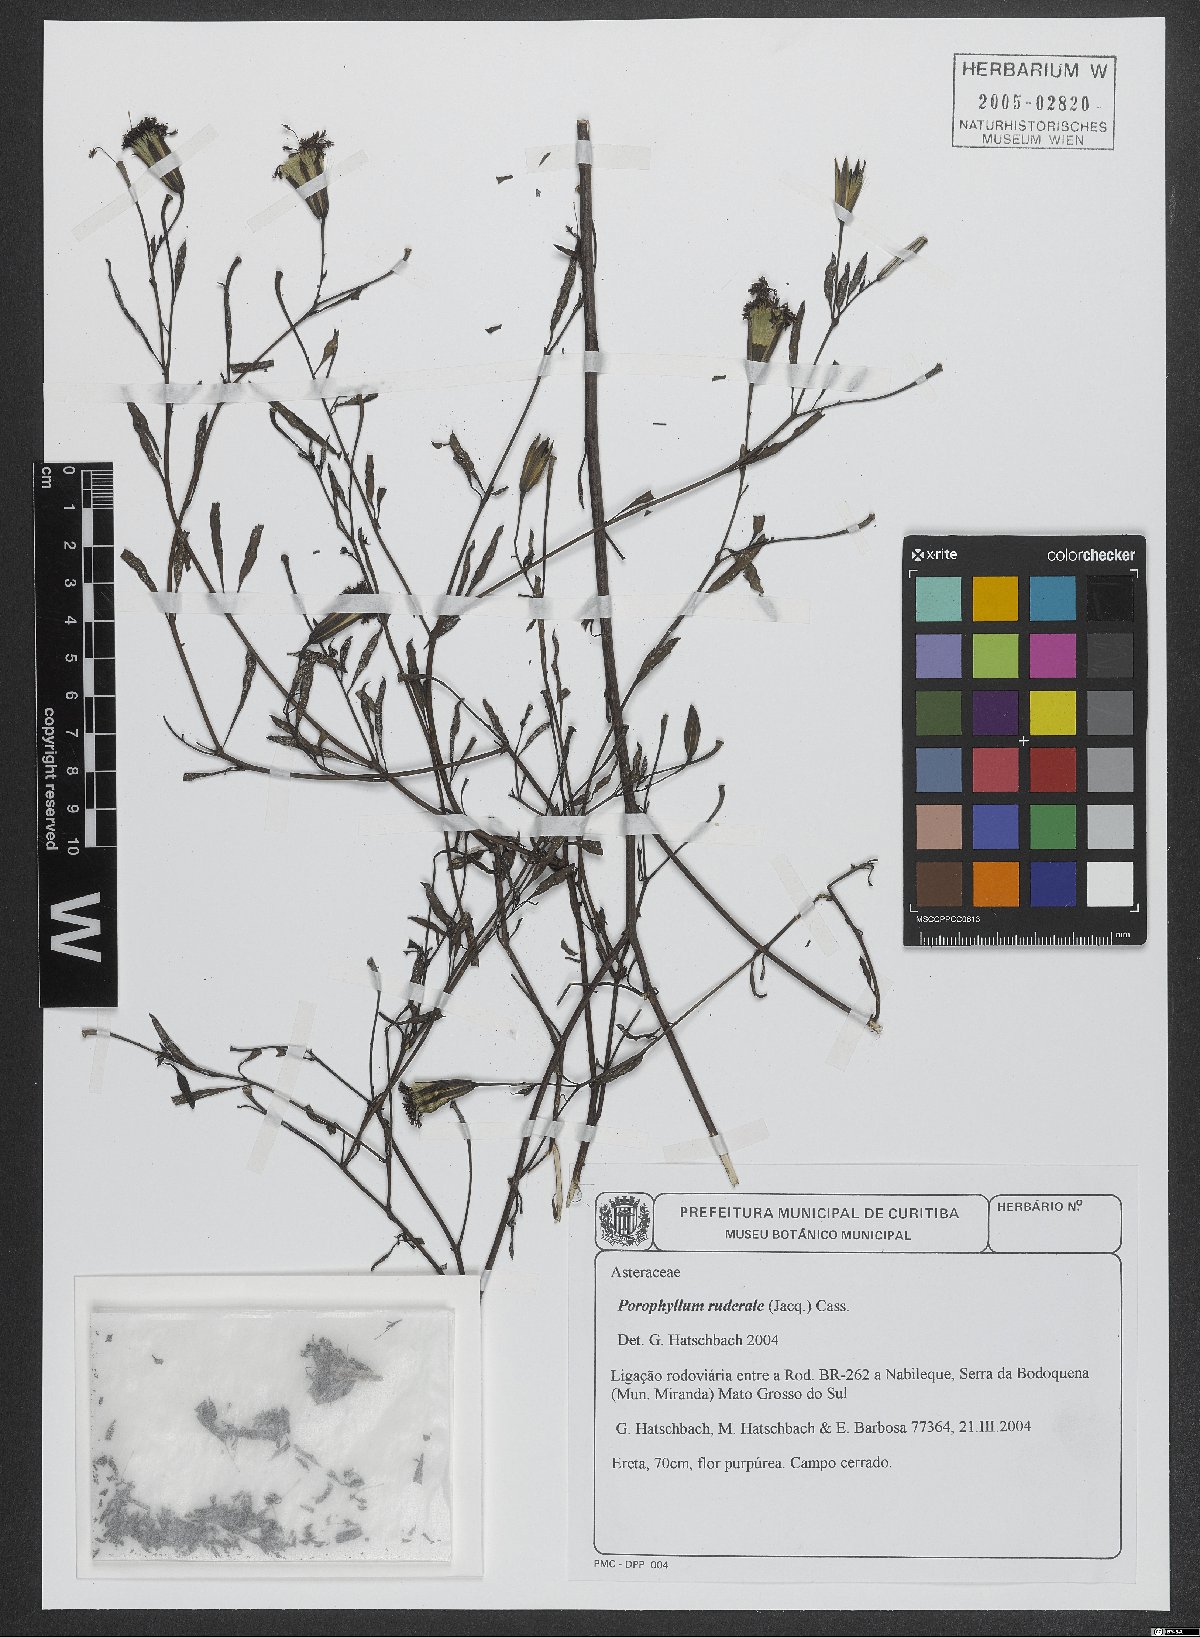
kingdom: Plantae
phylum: Tracheophyta
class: Magnoliopsida
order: Asterales
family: Asteraceae
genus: Porophyllum
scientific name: Porophyllum ruderale
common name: Yerba porosa
